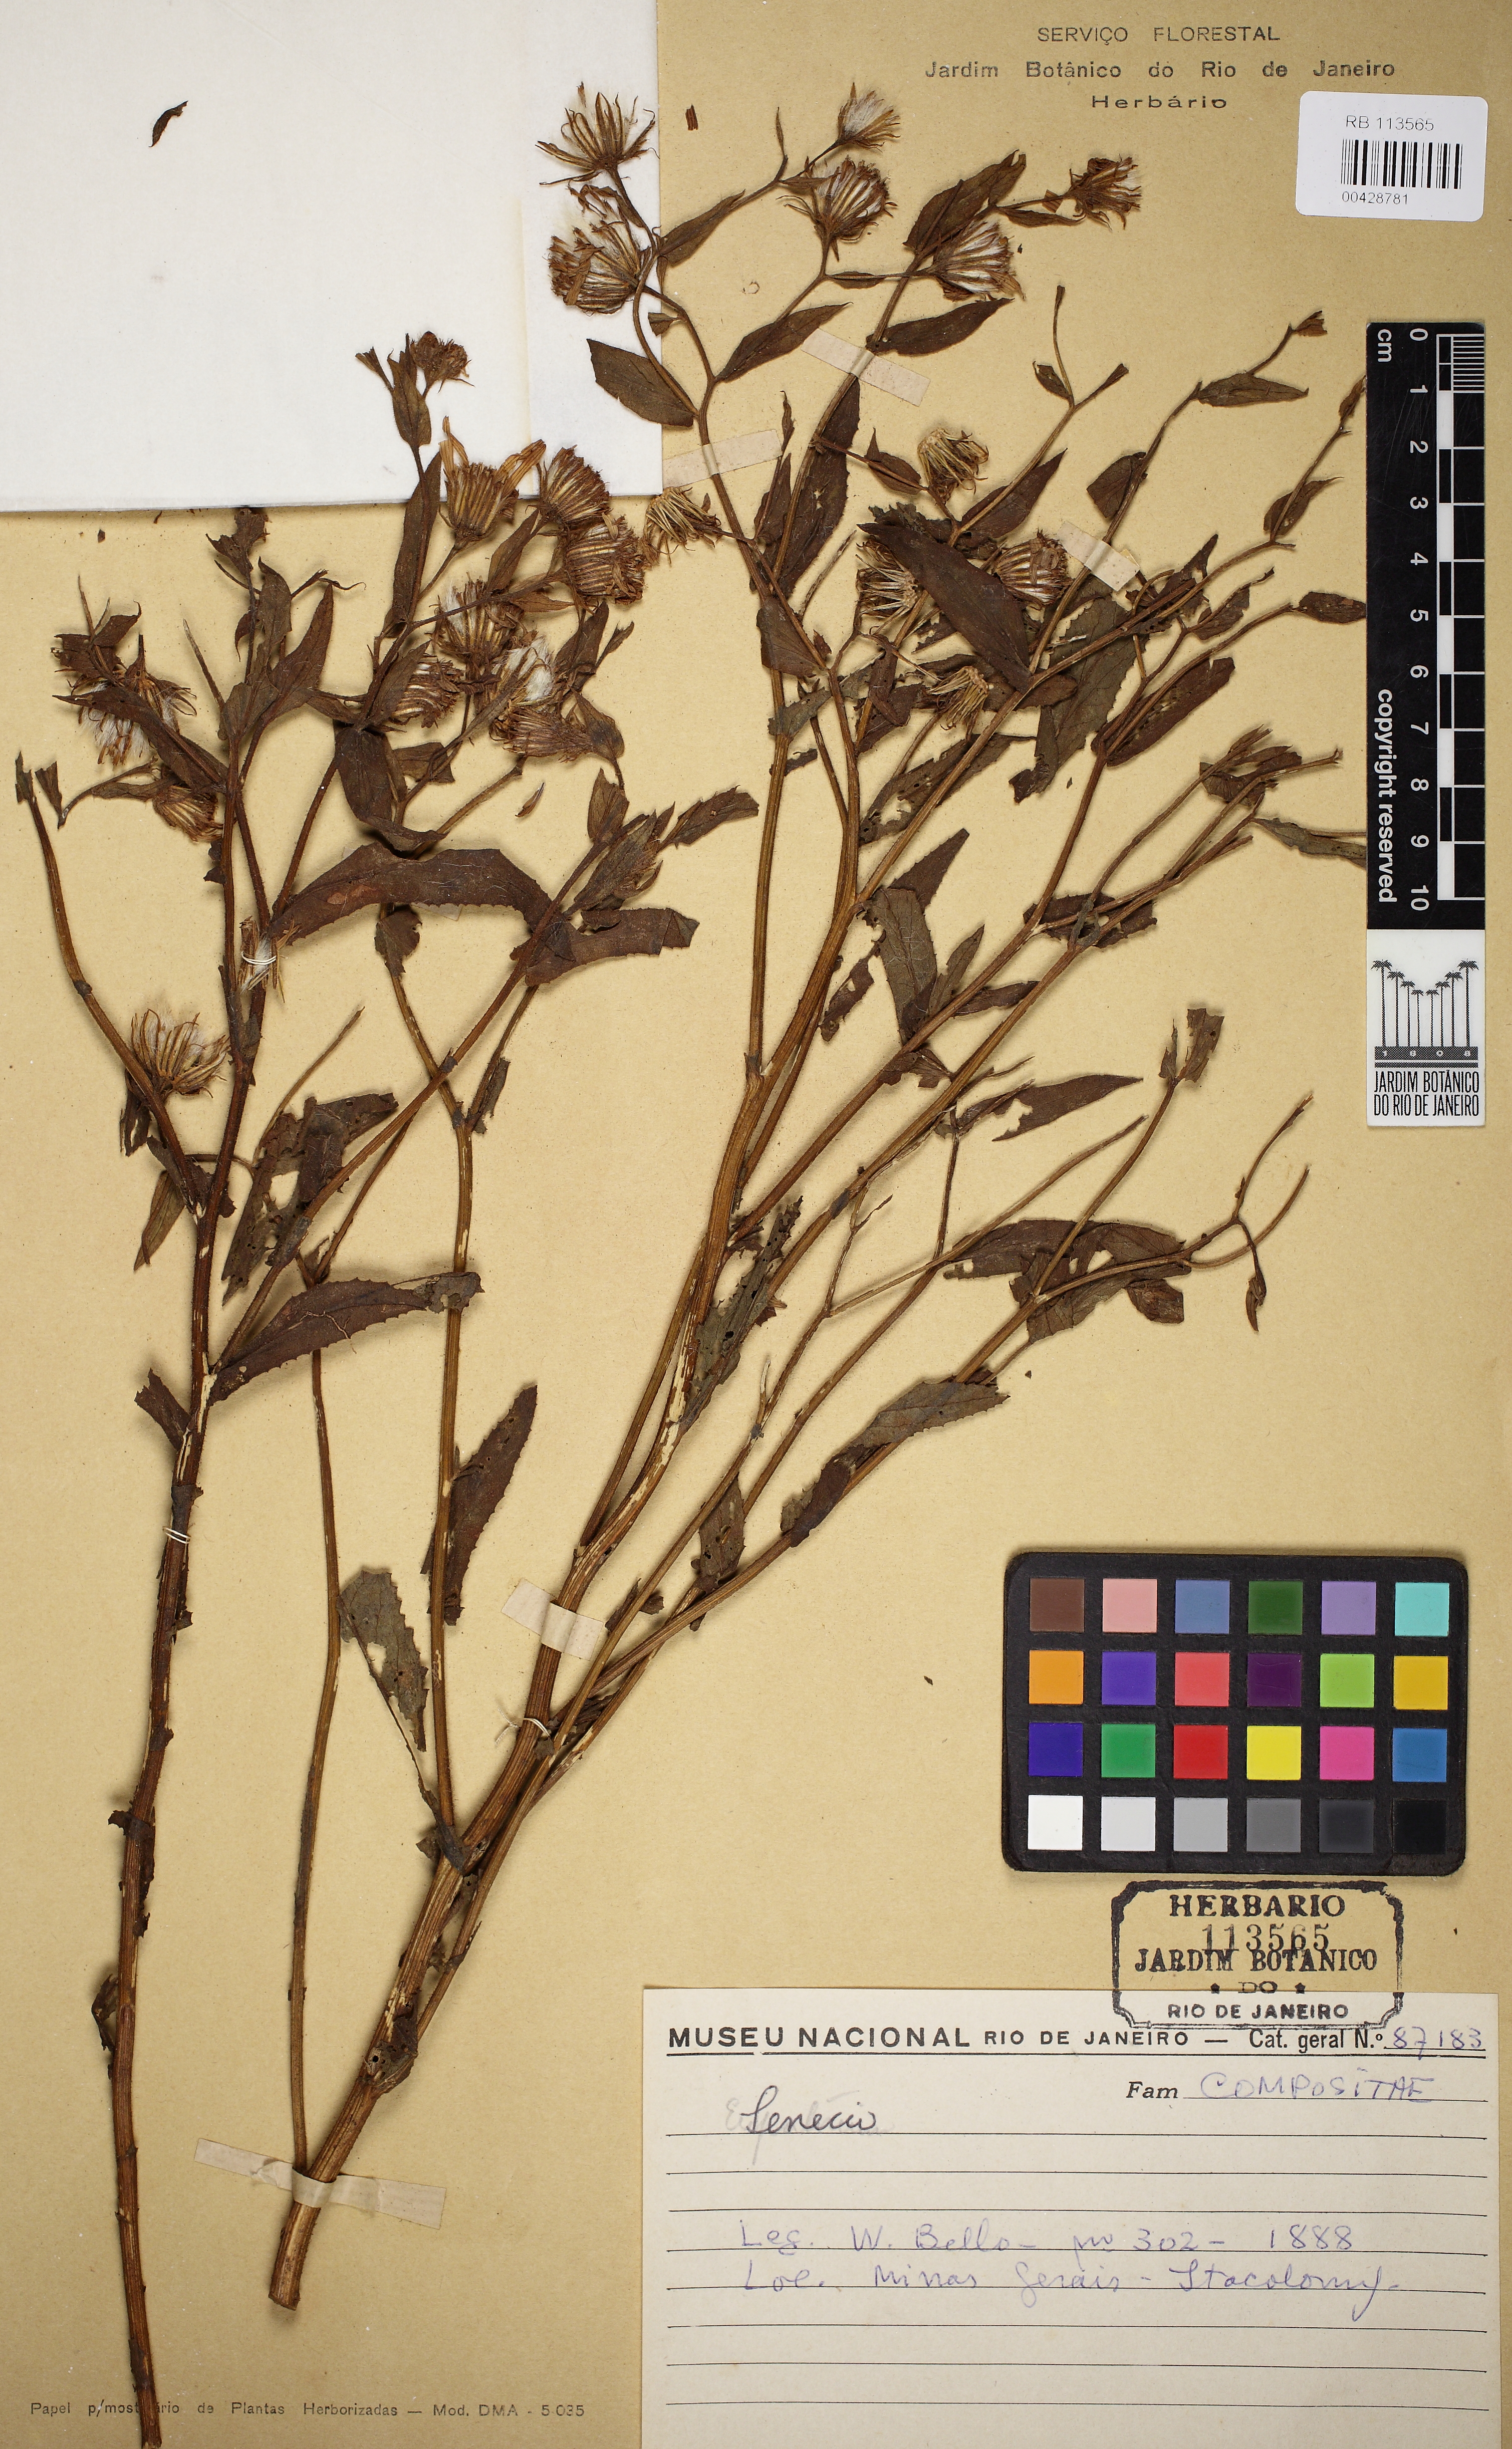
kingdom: Plantae
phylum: Tracheophyta
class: Magnoliopsida
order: Asterales
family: Asteraceae
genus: Senecio
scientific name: Senecio
